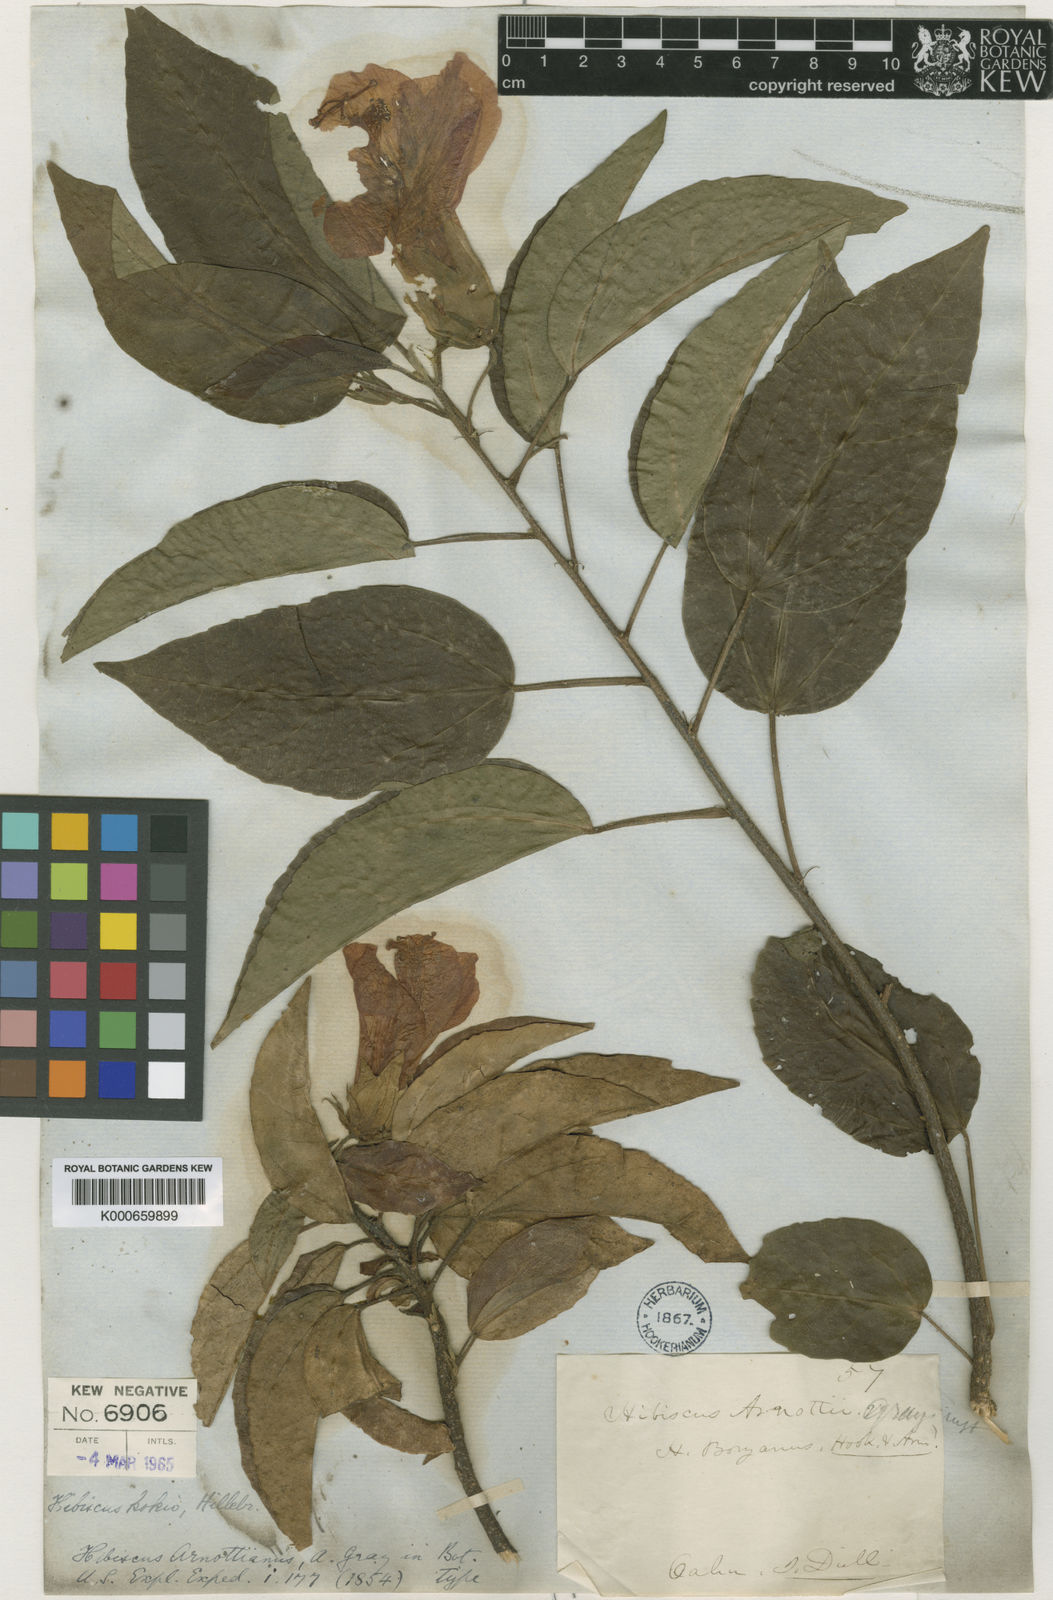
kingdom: Plantae
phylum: Tracheophyta
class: Magnoliopsida
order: Malvales
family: Malvaceae
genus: Hibiscus
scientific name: Hibiscus arnottianus
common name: White molokai hibiscus
